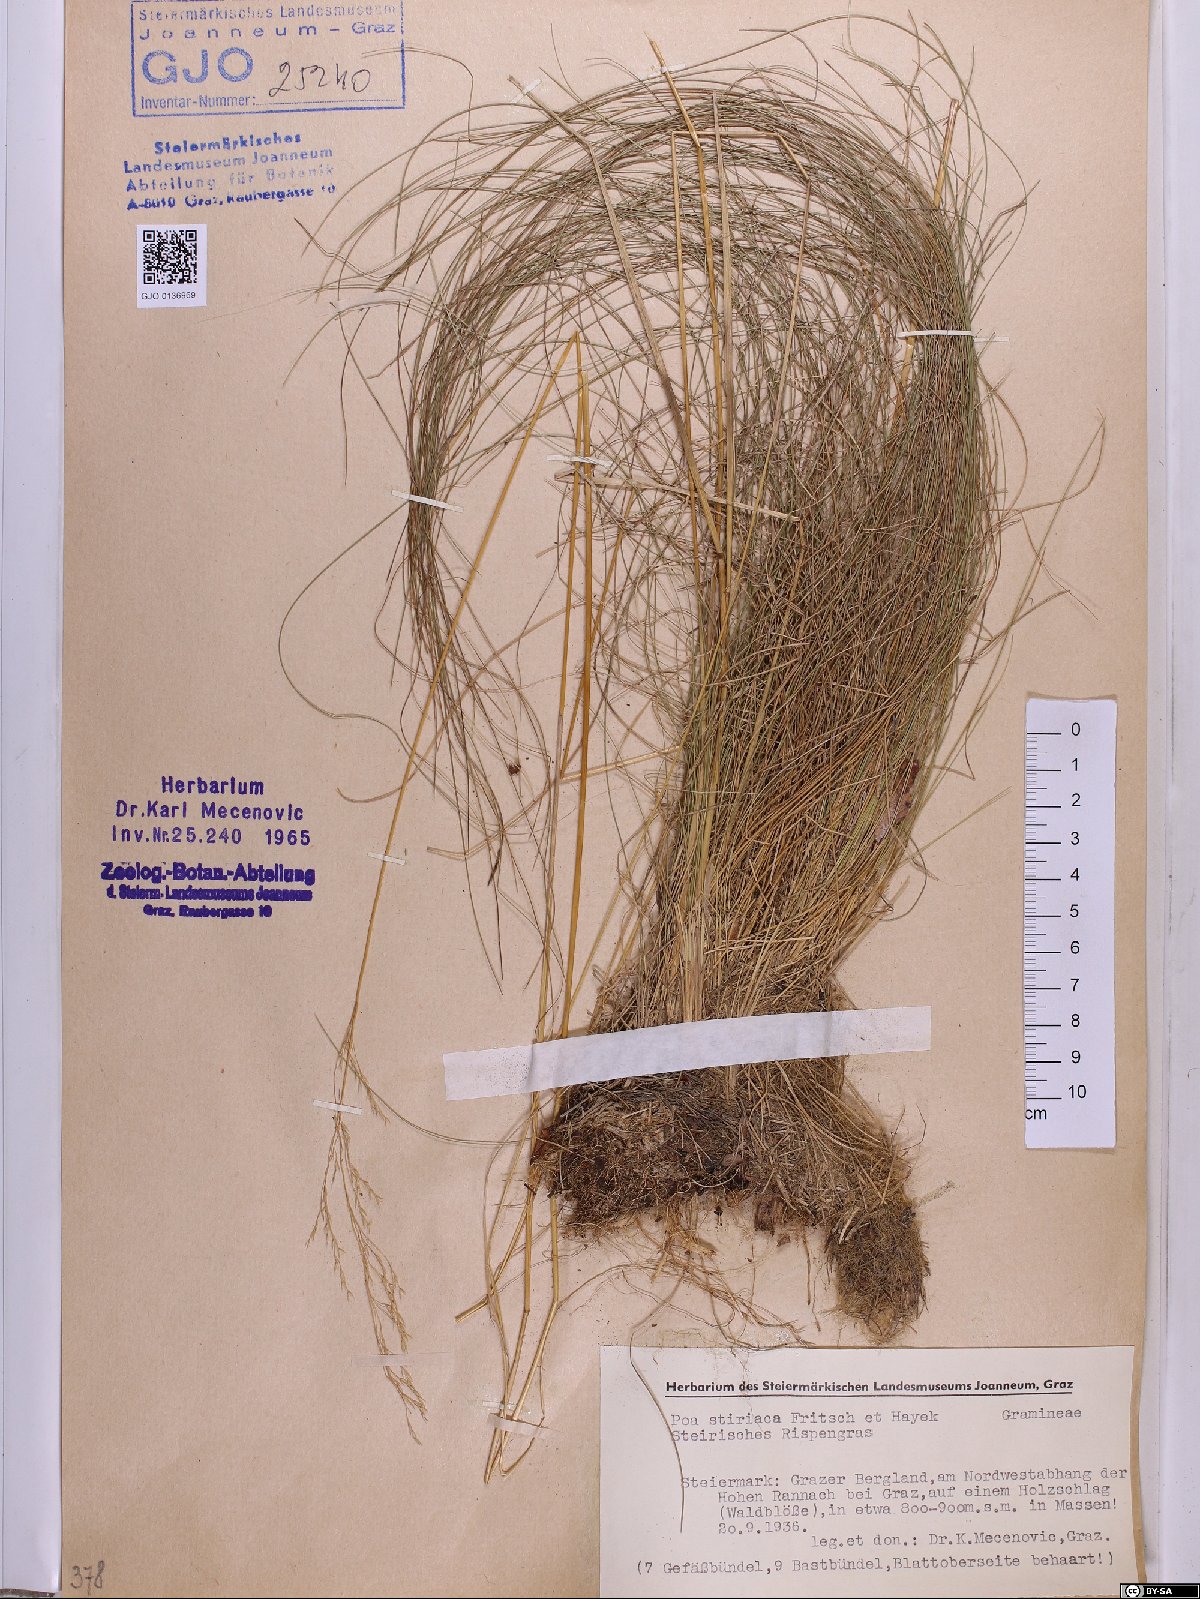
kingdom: Plantae
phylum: Tracheophyta
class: Liliopsida
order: Poales
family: Poaceae
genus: Poa
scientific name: Poa stiriaca
